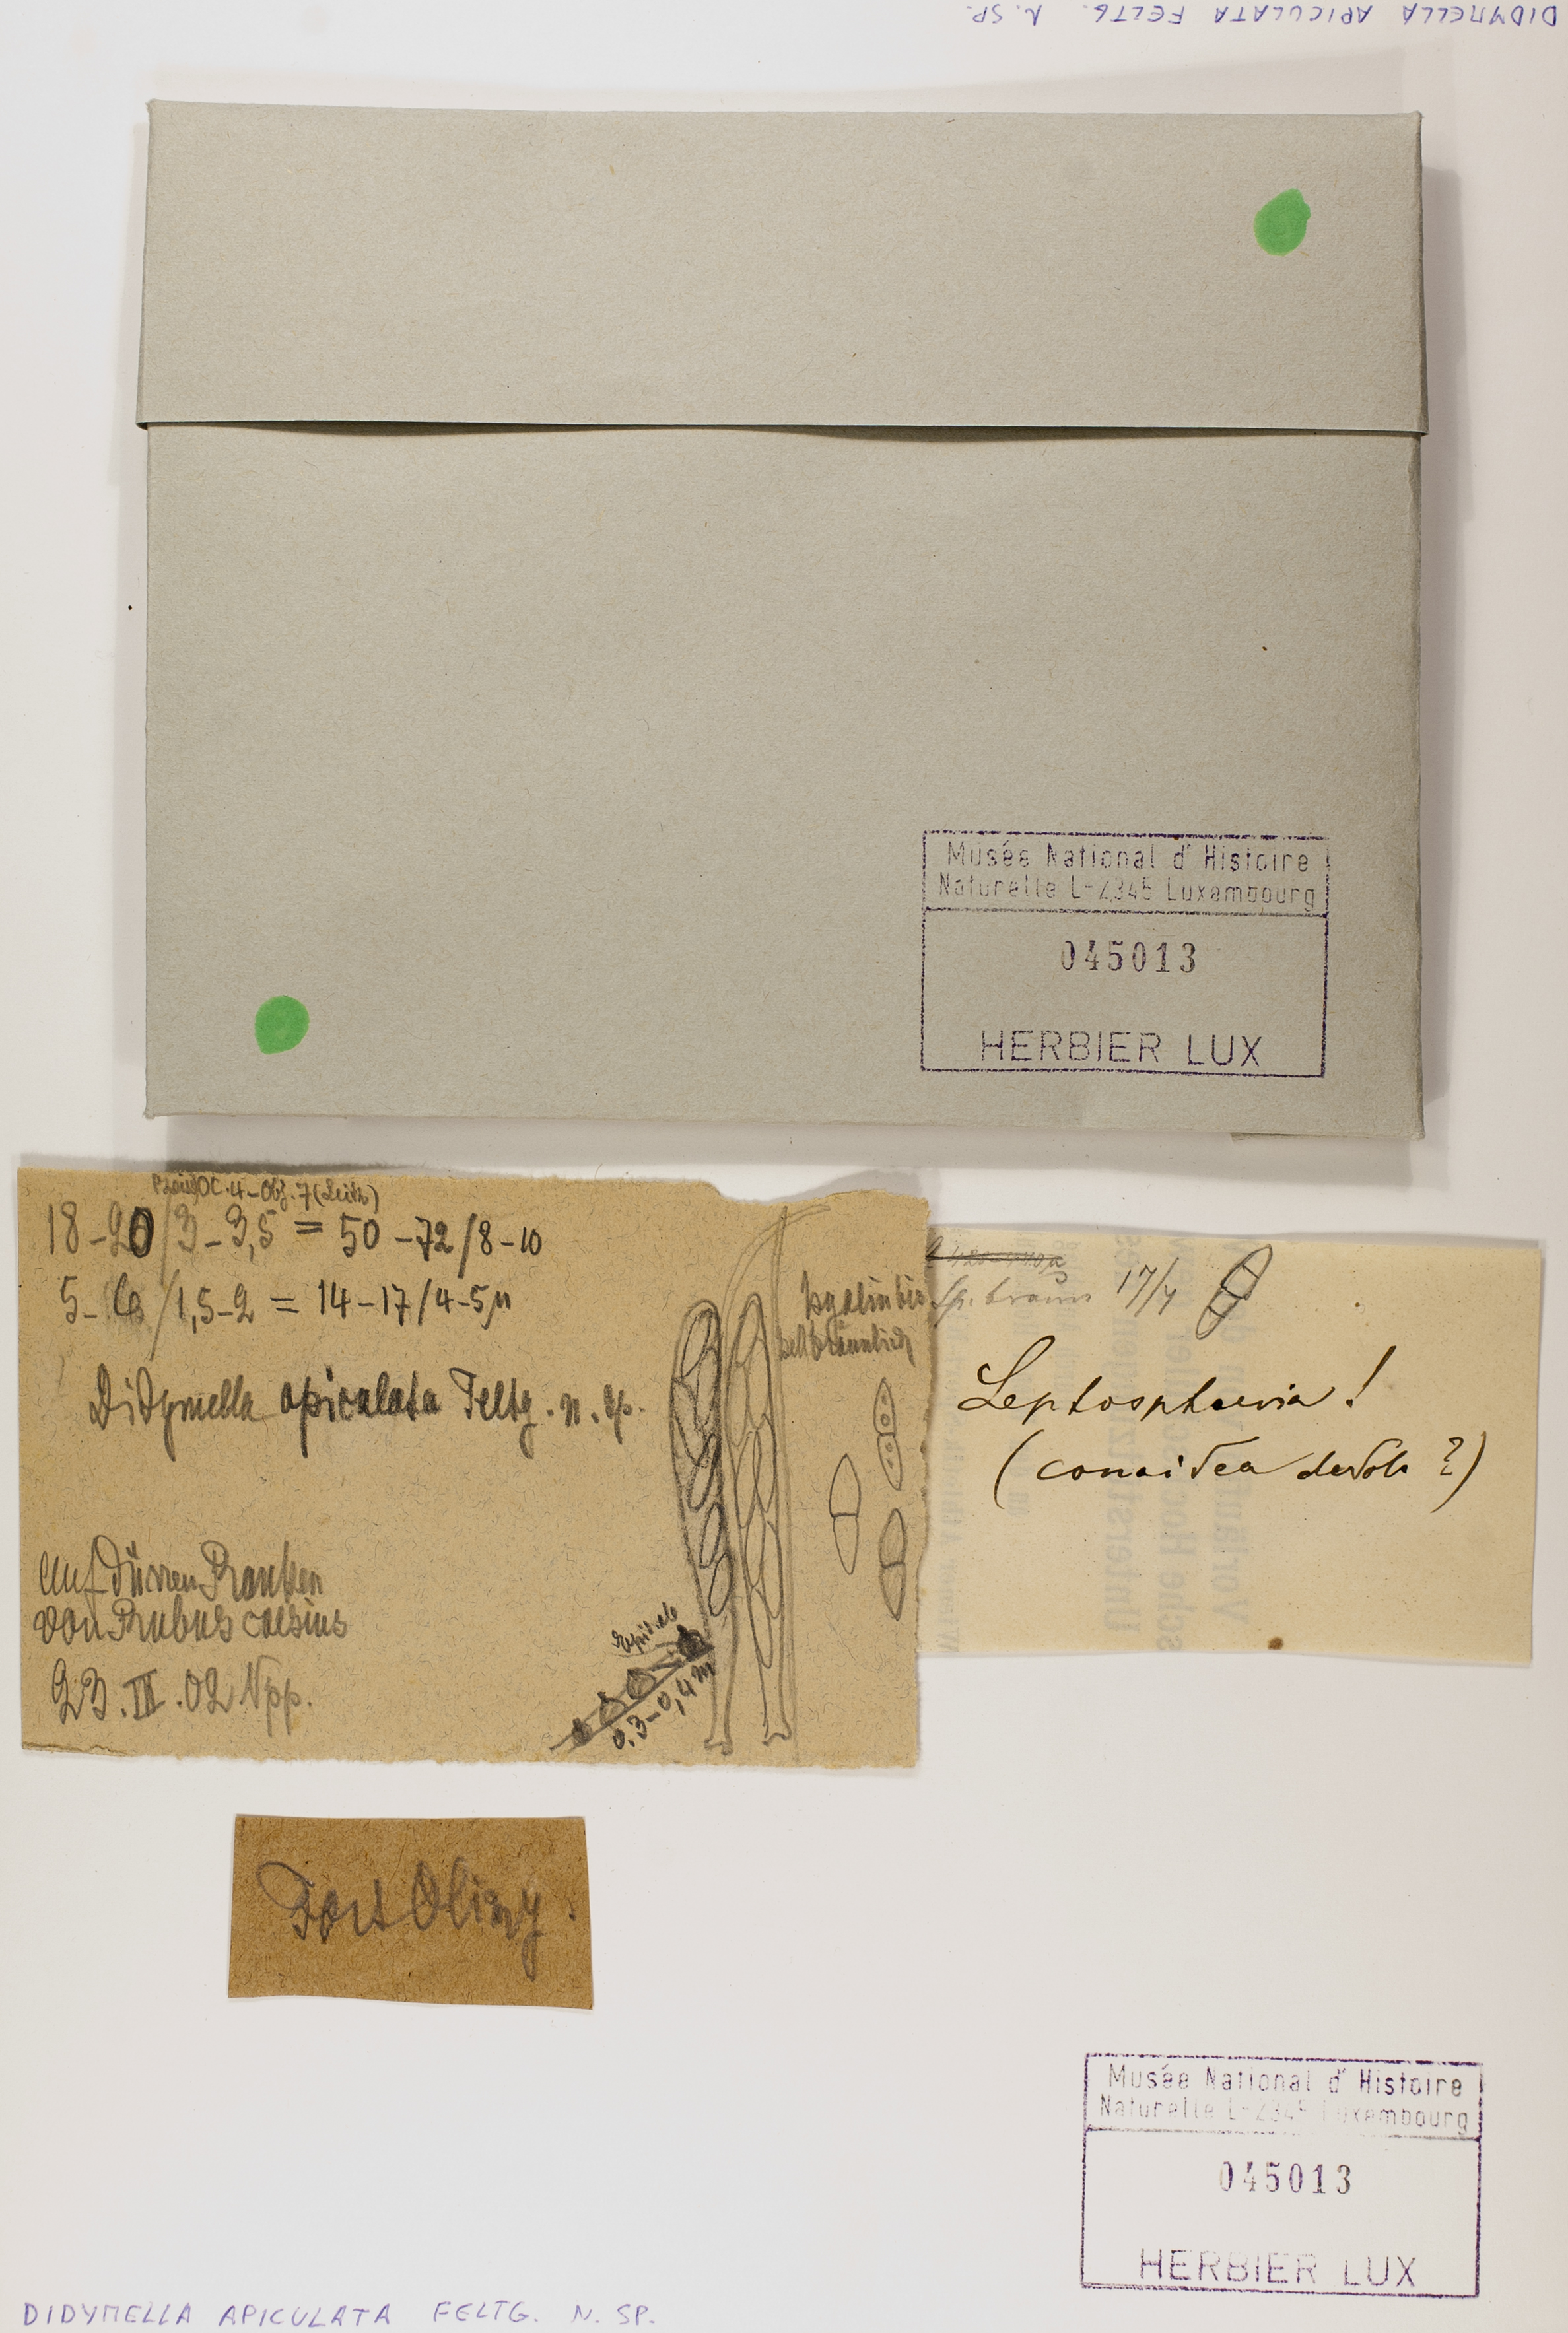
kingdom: Fungi
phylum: Ascomycota
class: Dothideomycetes
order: Pleosporales
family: Didymellaceae
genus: Didymella
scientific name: Didymella apiculata
